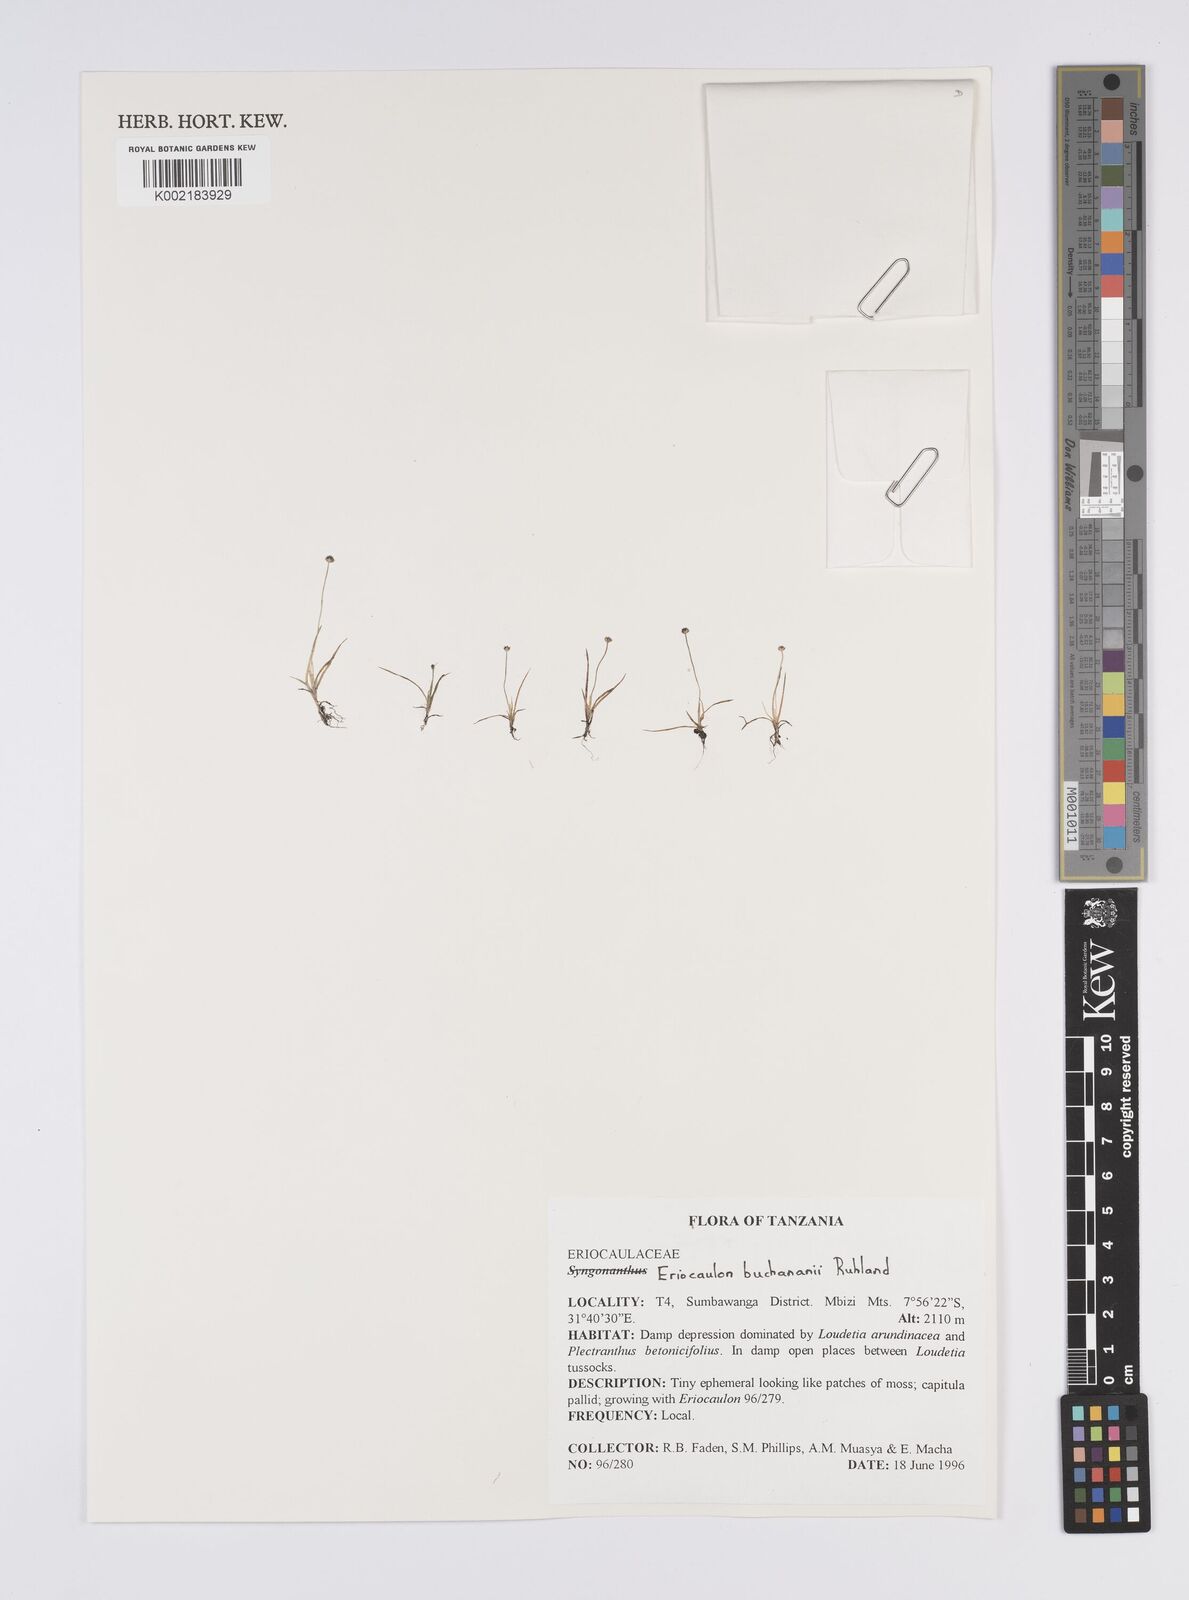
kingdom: Plantae
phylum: Tracheophyta
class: Liliopsida
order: Poales
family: Eriocaulaceae
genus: Eriocaulon
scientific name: Eriocaulon buchananii
